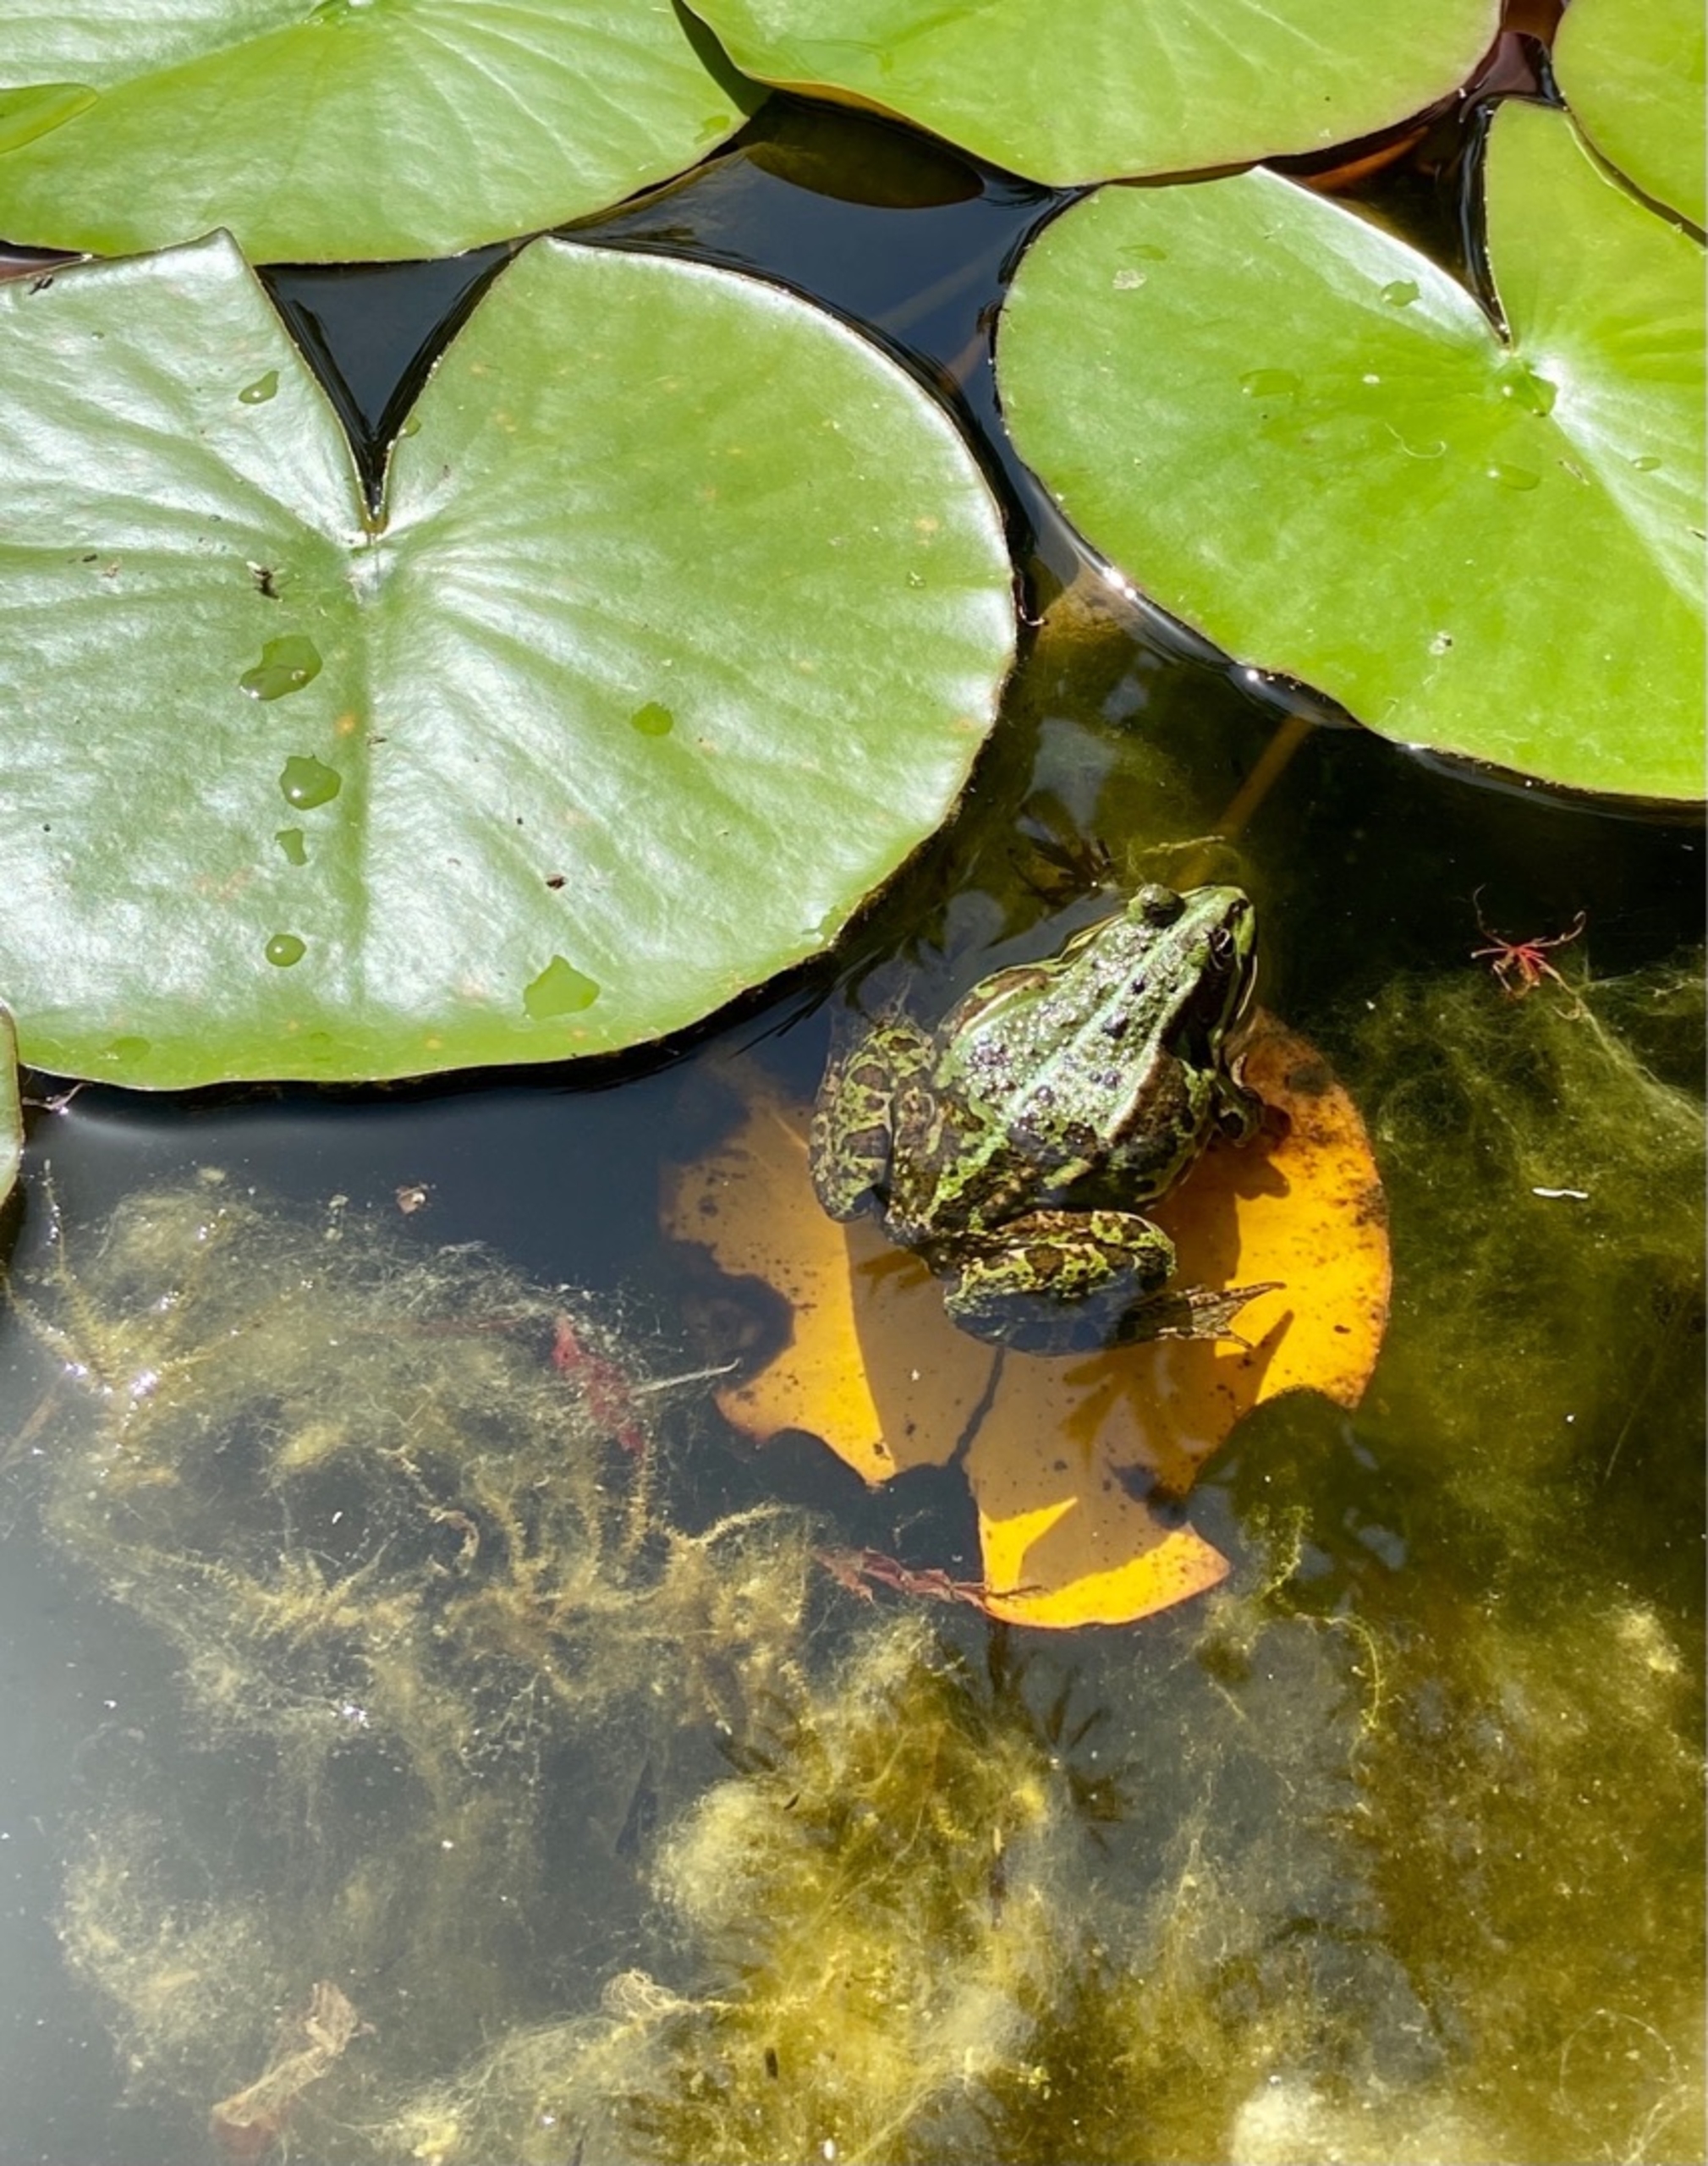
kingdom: Animalia
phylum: Chordata
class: Amphibia
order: Anura
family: Ranidae
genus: Pelophylax
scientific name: Pelophylax lessonae
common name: Grøn frø
